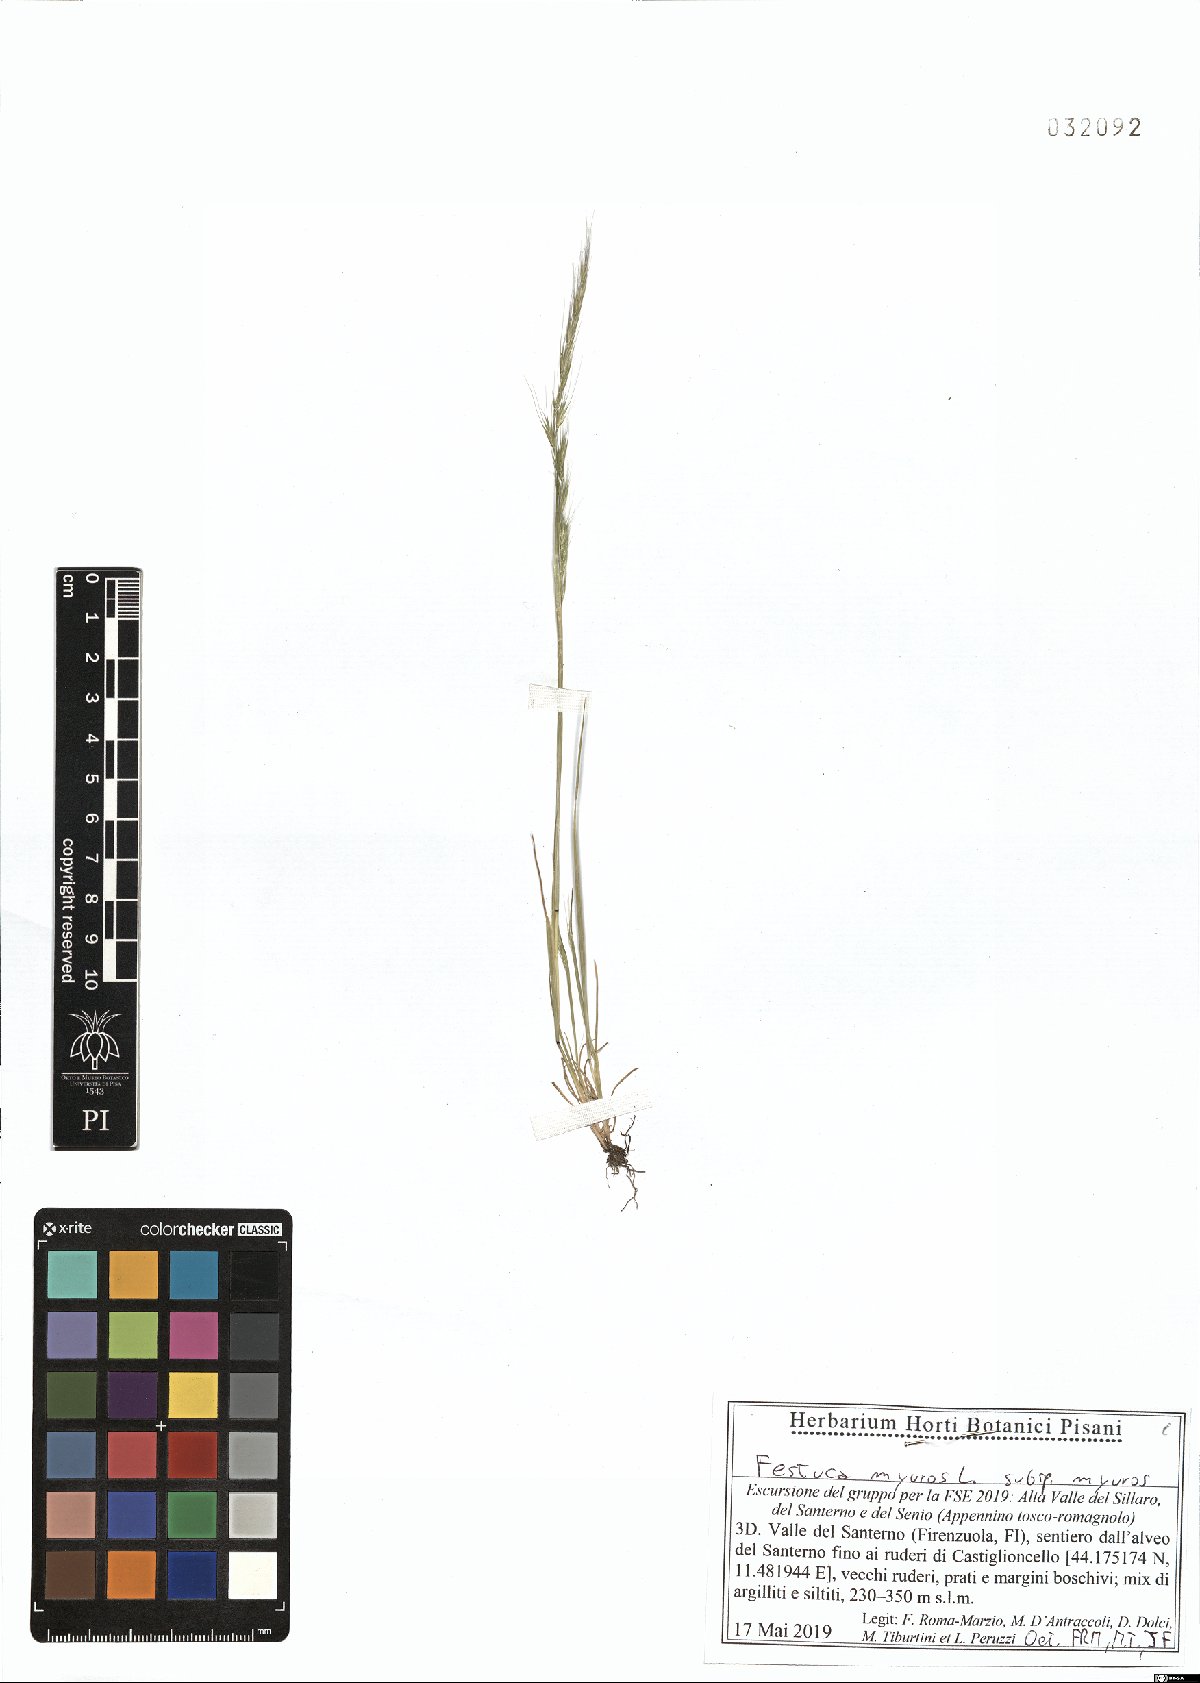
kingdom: Plantae
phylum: Tracheophyta
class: Liliopsida
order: Poales
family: Poaceae
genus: Festuca
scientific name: Festuca myuros
